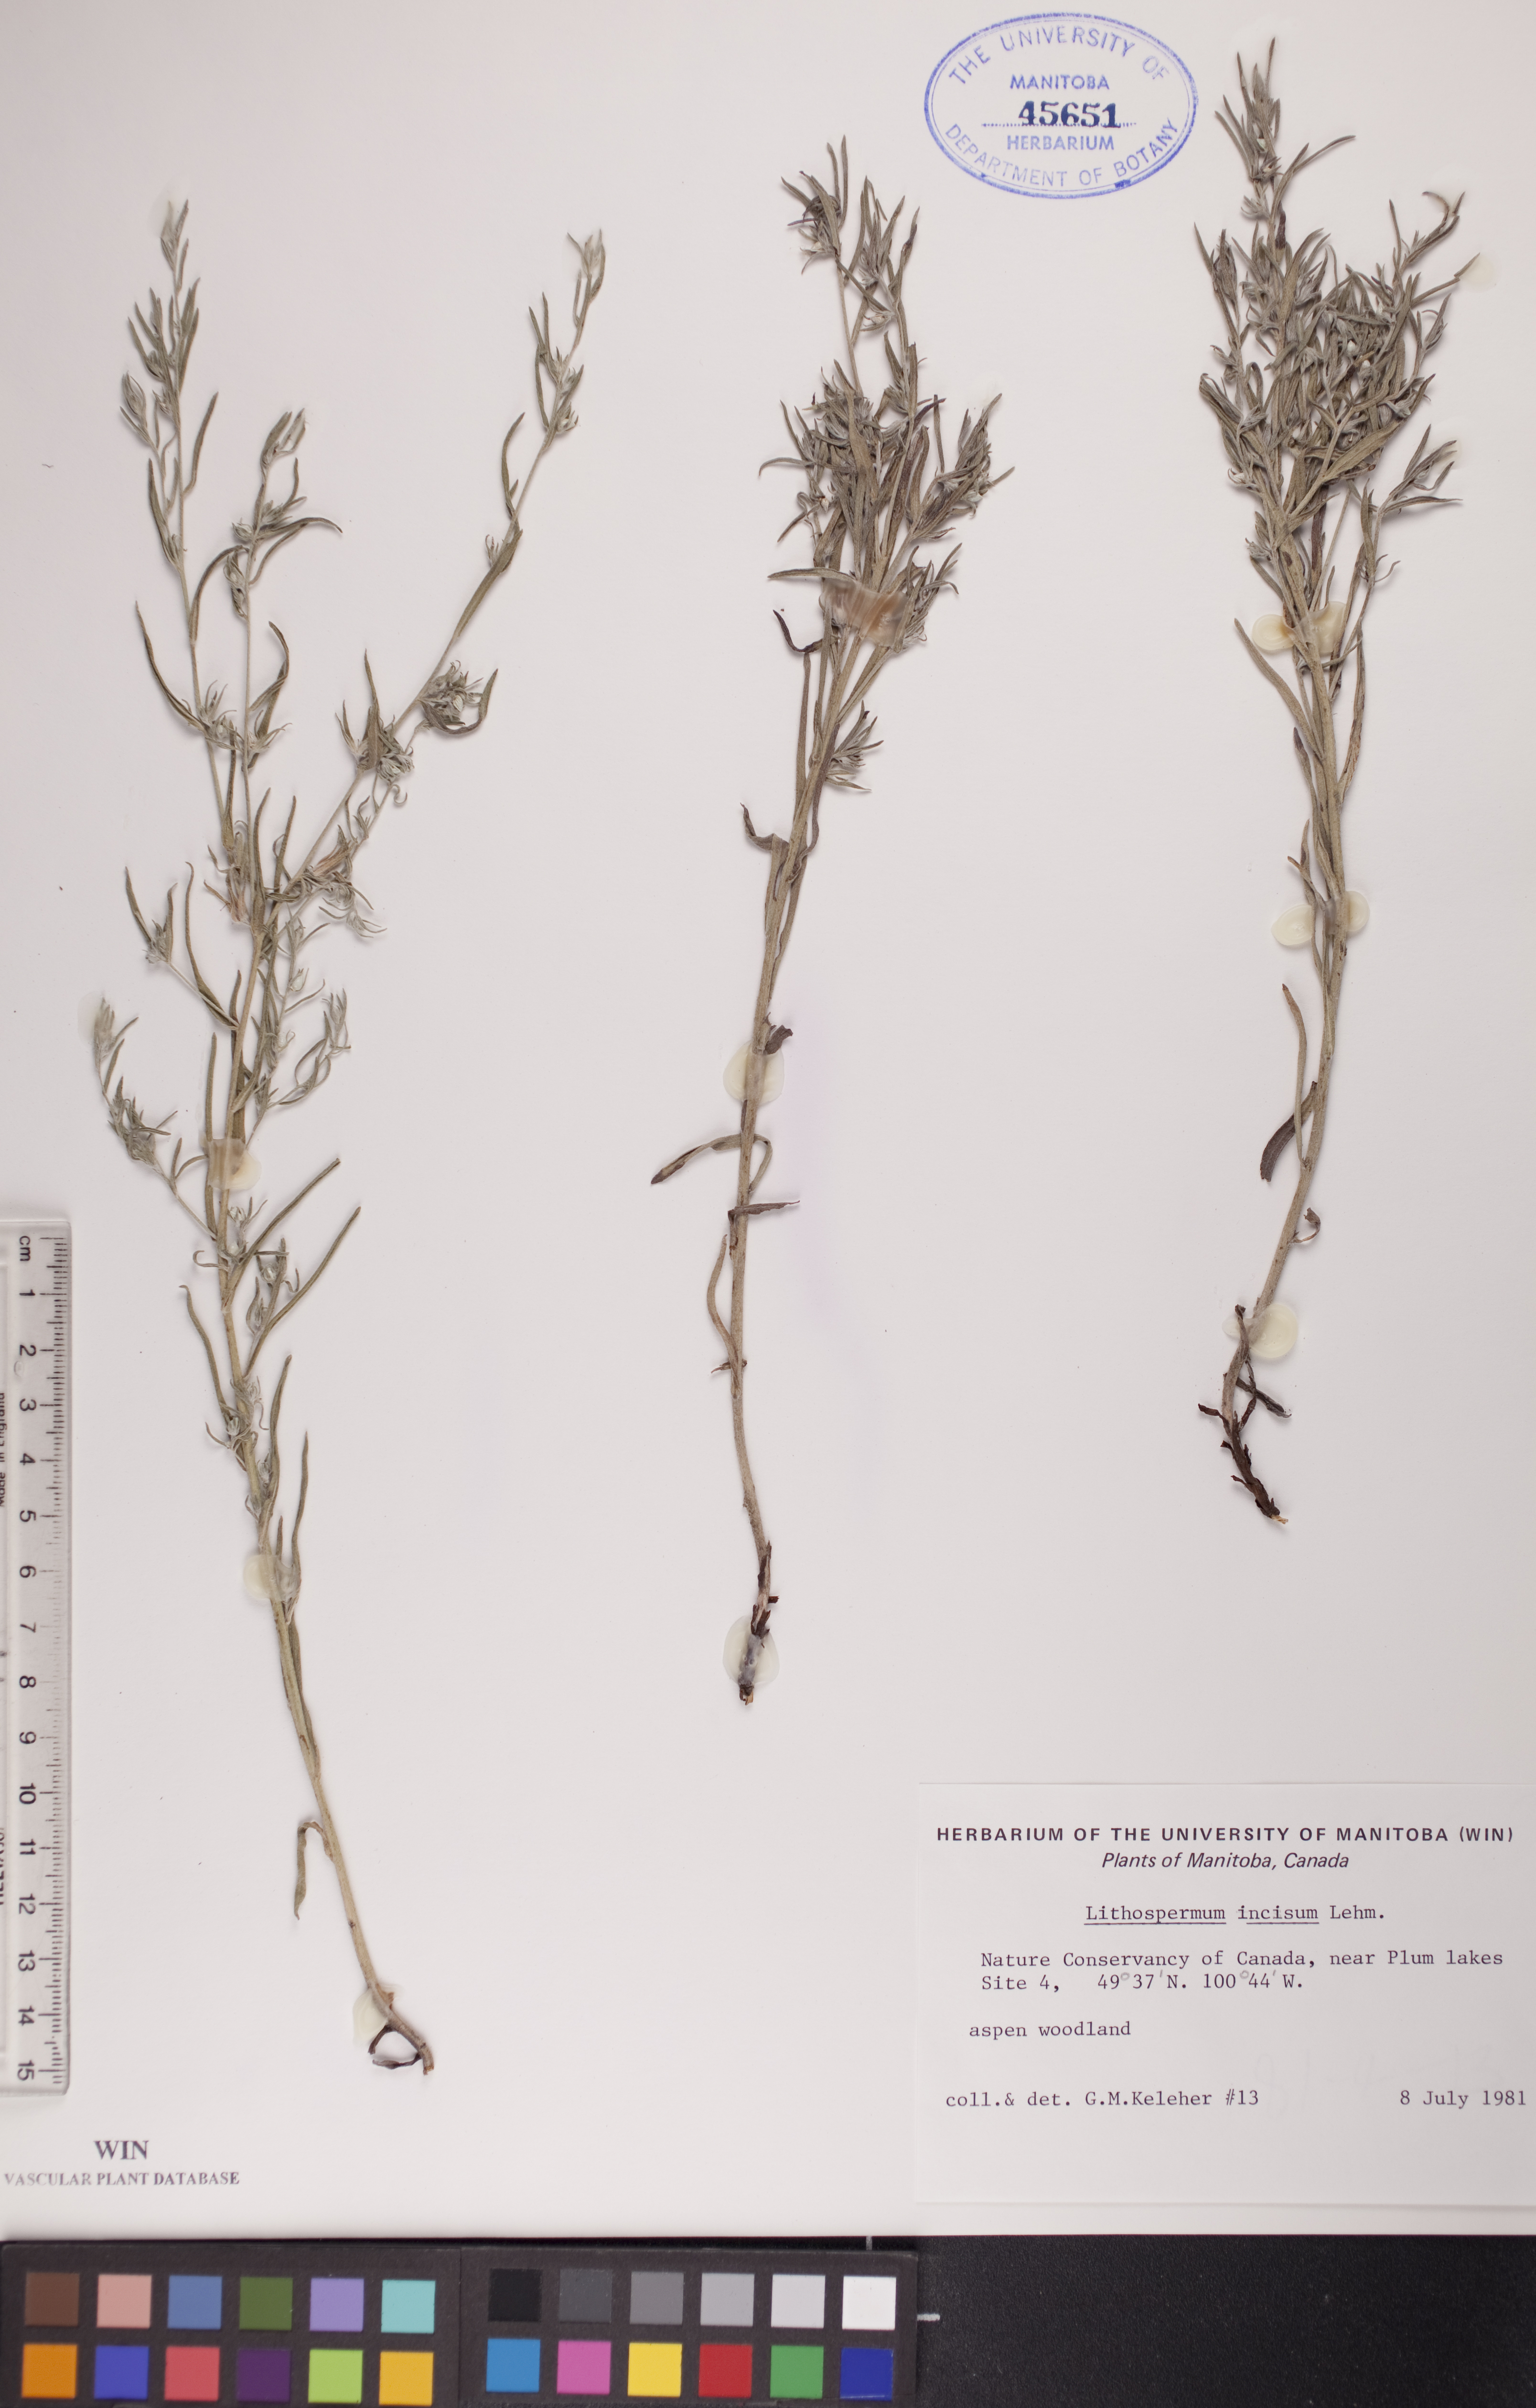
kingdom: Plantae
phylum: Tracheophyta
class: Magnoliopsida
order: Boraginales
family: Boraginaceae
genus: Lithospermum
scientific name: Lithospermum incisum
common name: Fringed gromwell
